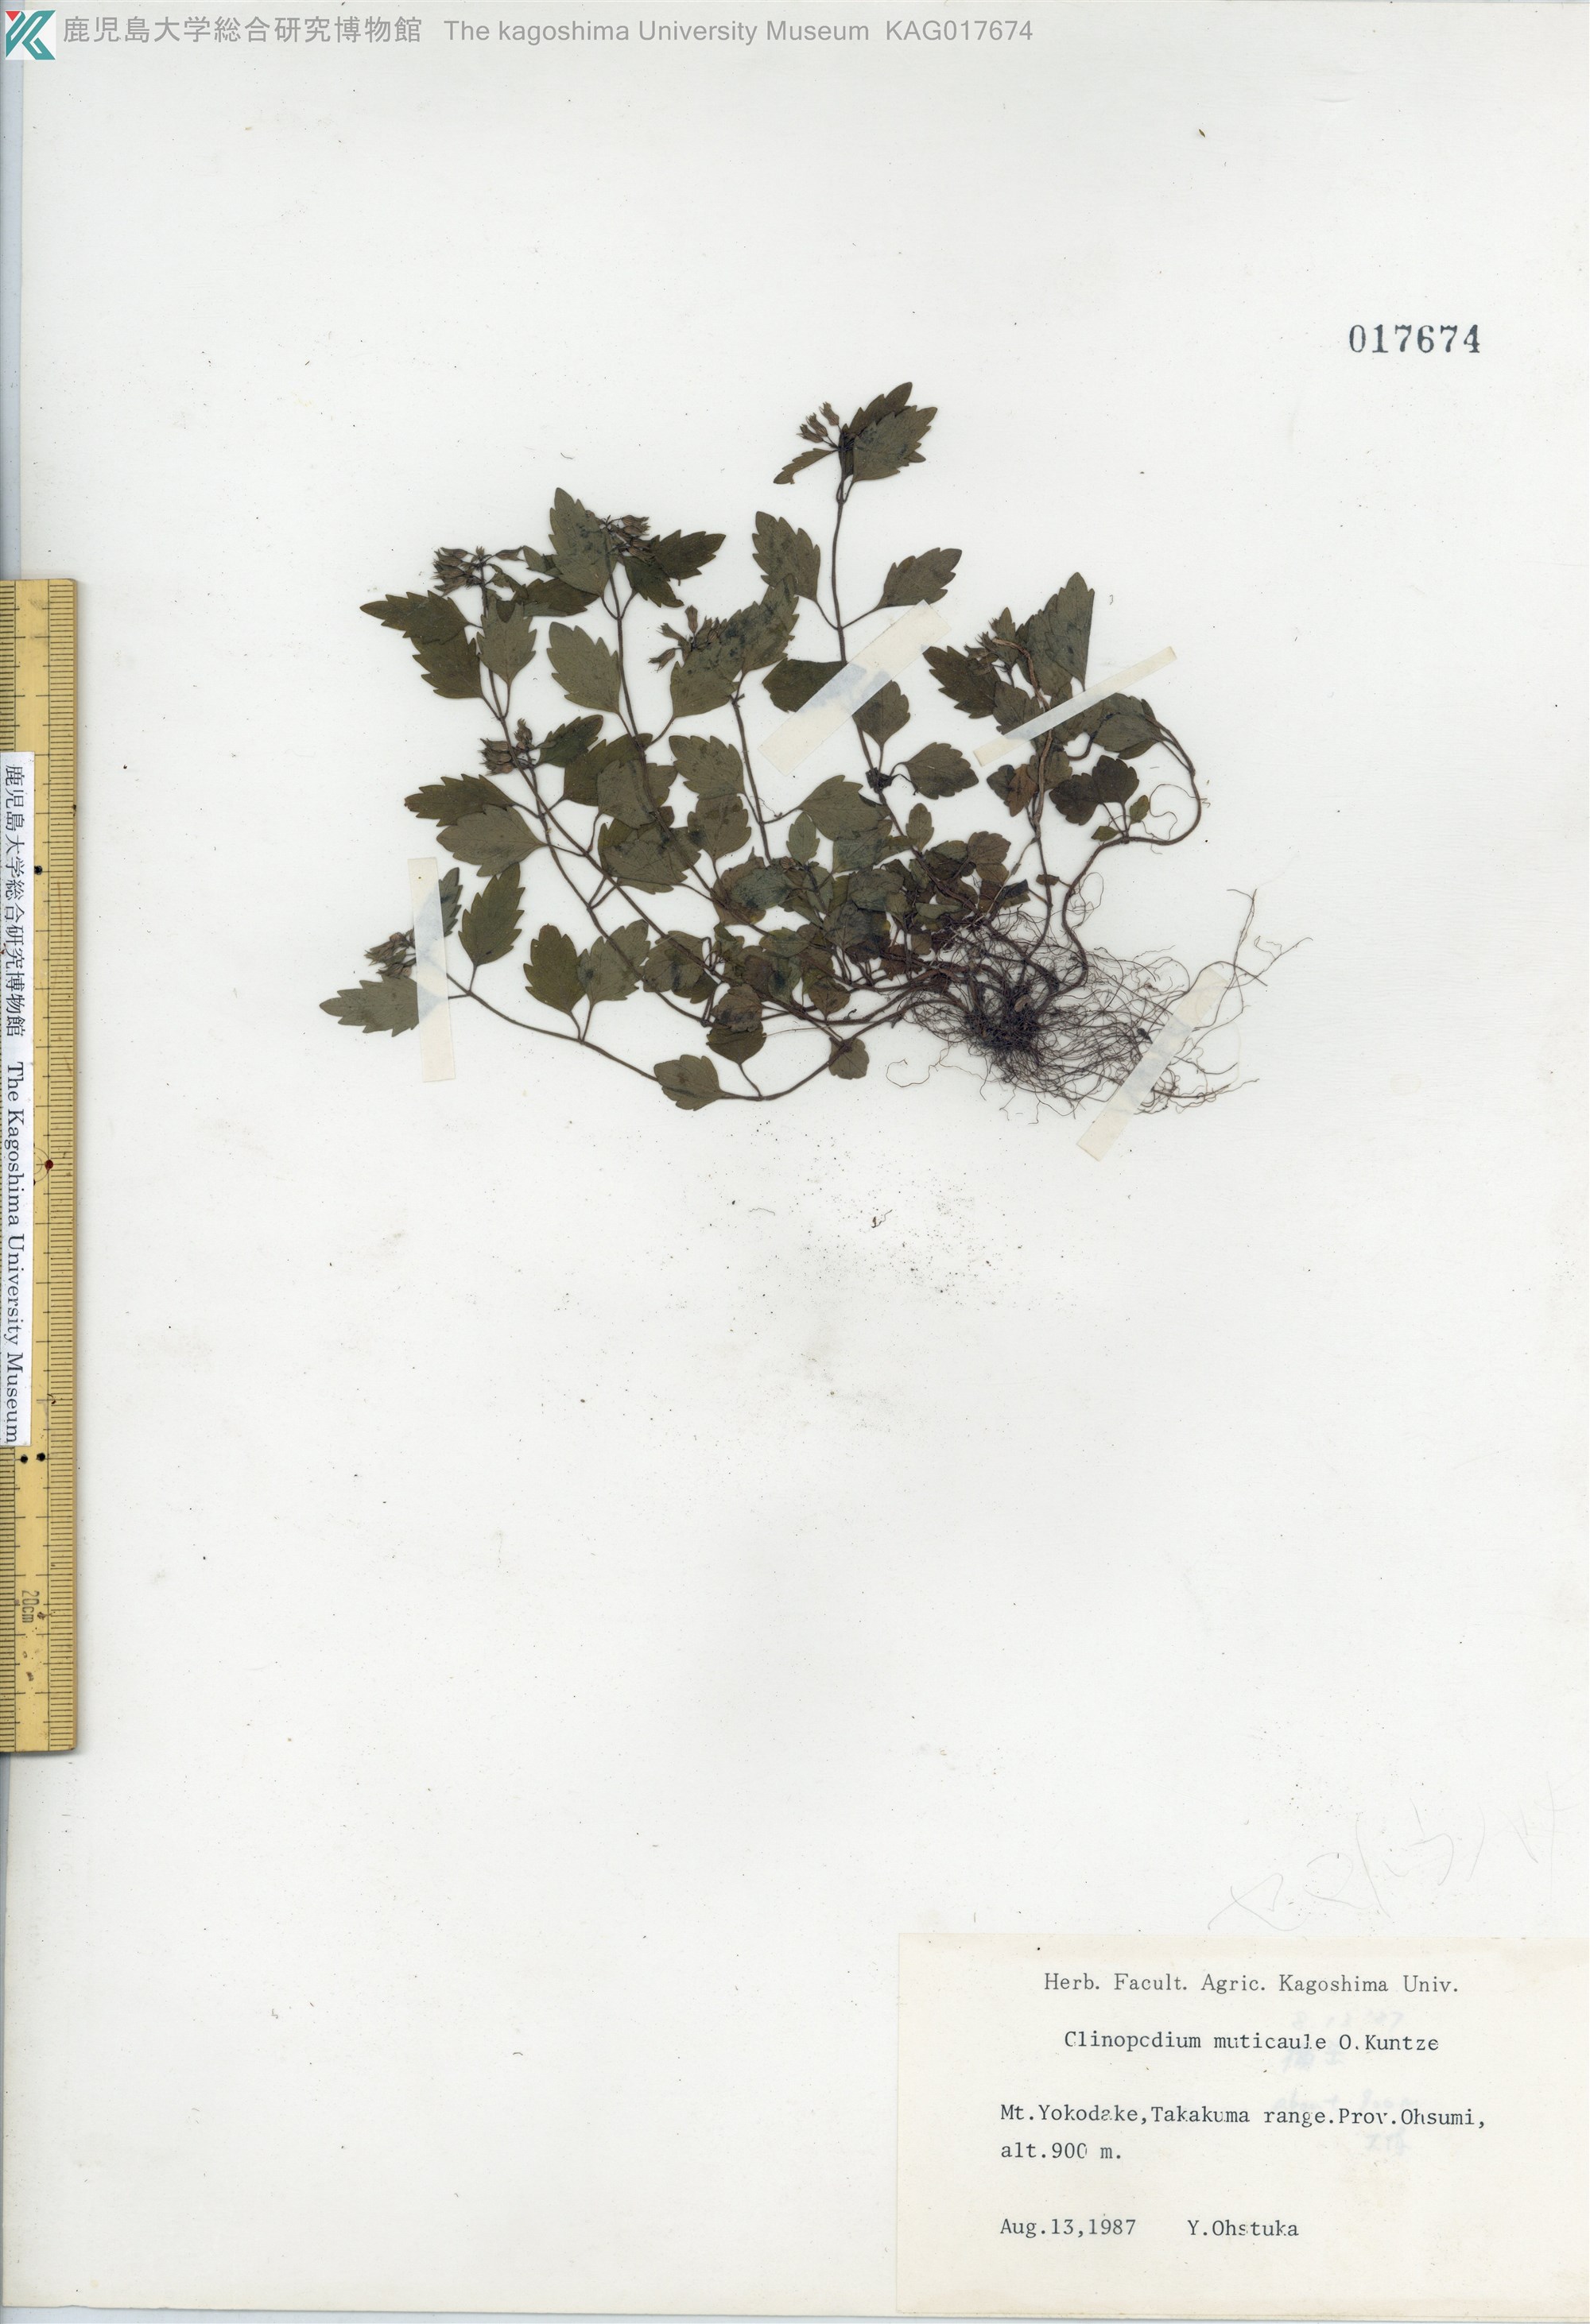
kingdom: Plantae
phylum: Tracheophyta
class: Magnoliopsida
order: Lamiales
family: Lamiaceae
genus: Clinopodium
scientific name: Clinopodium multicaule
